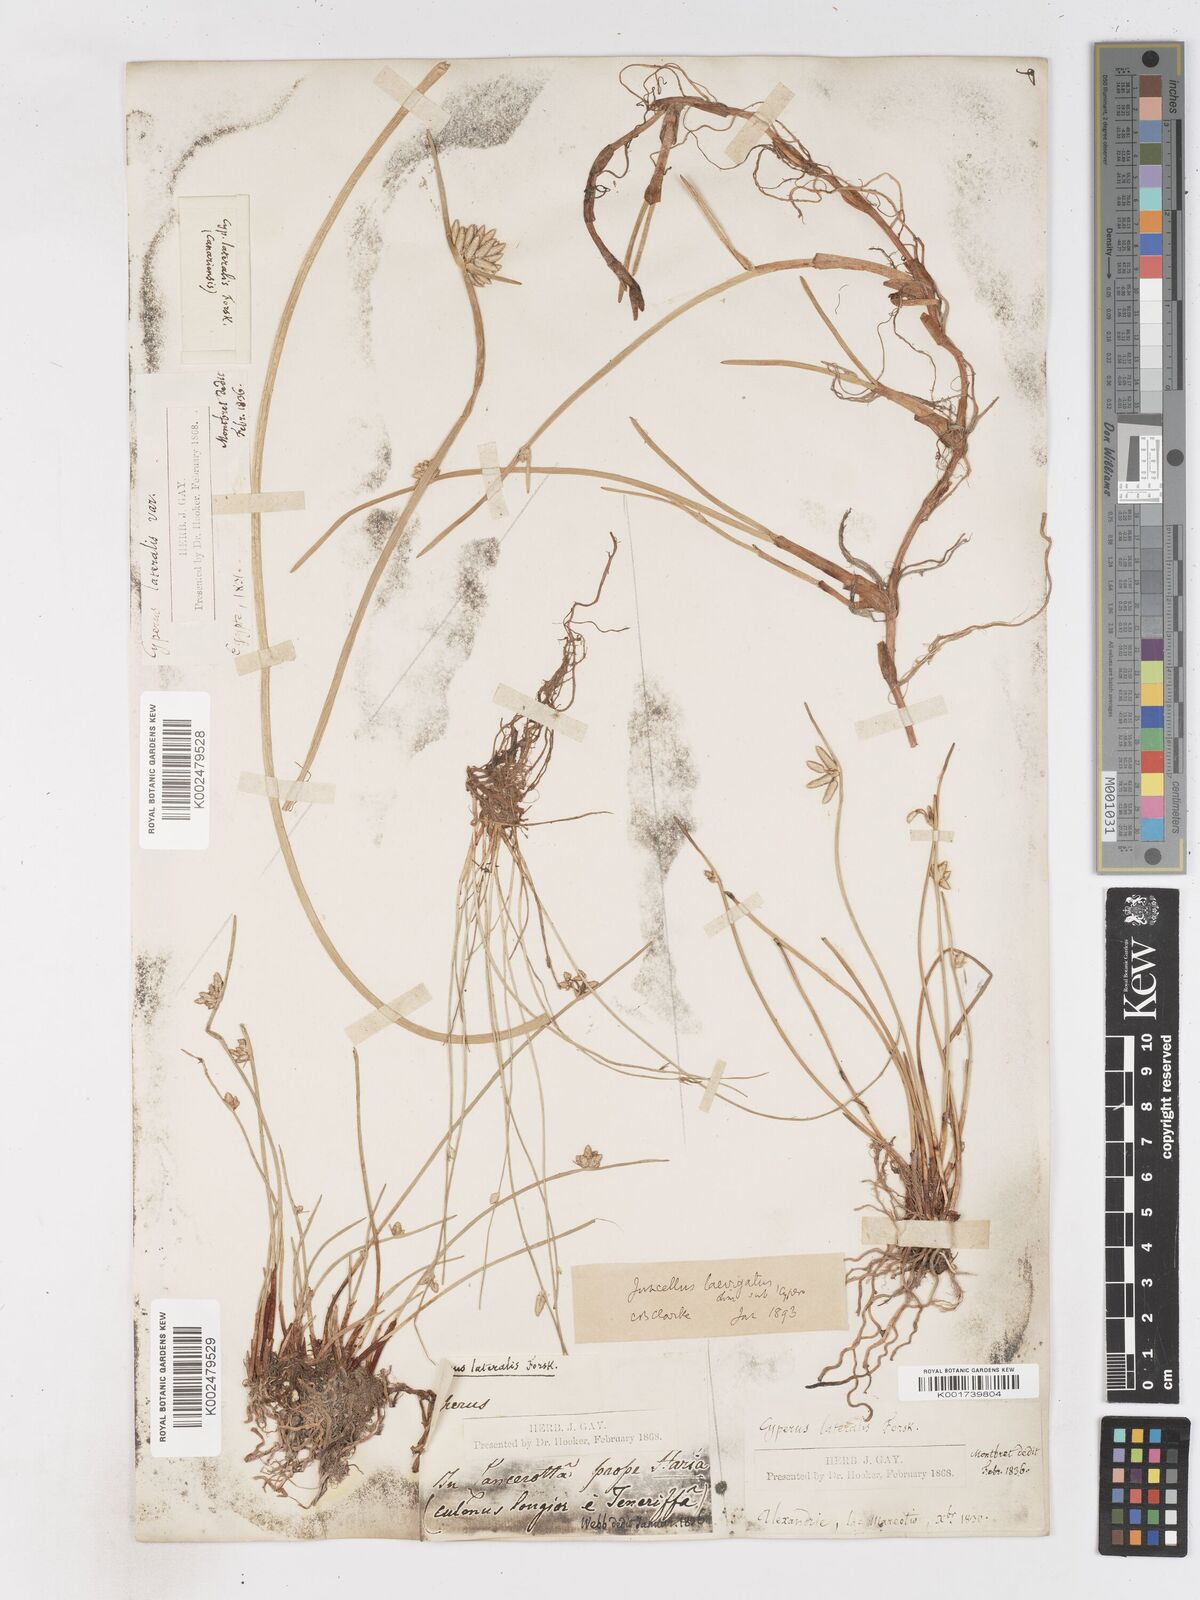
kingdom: Plantae
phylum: Tracheophyta
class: Liliopsida
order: Poales
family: Cyperaceae
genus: Cyperus
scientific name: Cyperus laevigatus
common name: Smooth flat sedge
